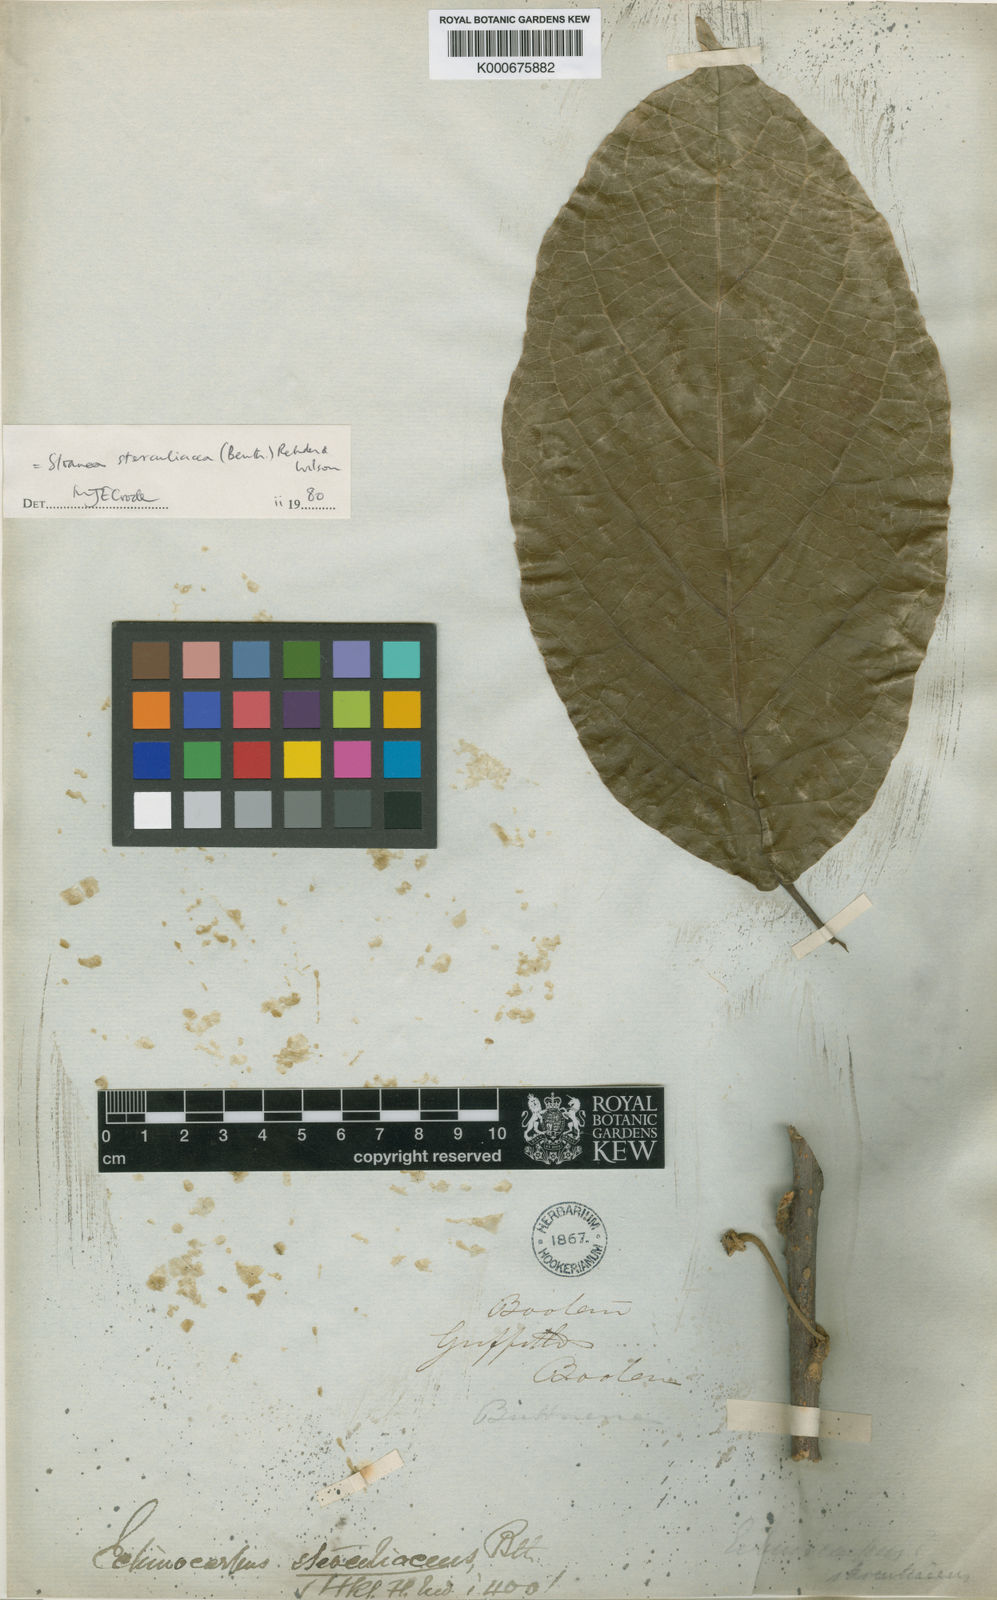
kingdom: Plantae
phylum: Tracheophyta
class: Magnoliopsida
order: Oxalidales
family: Elaeocarpaceae
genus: Sloanea
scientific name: Sloanea sterculiacea
